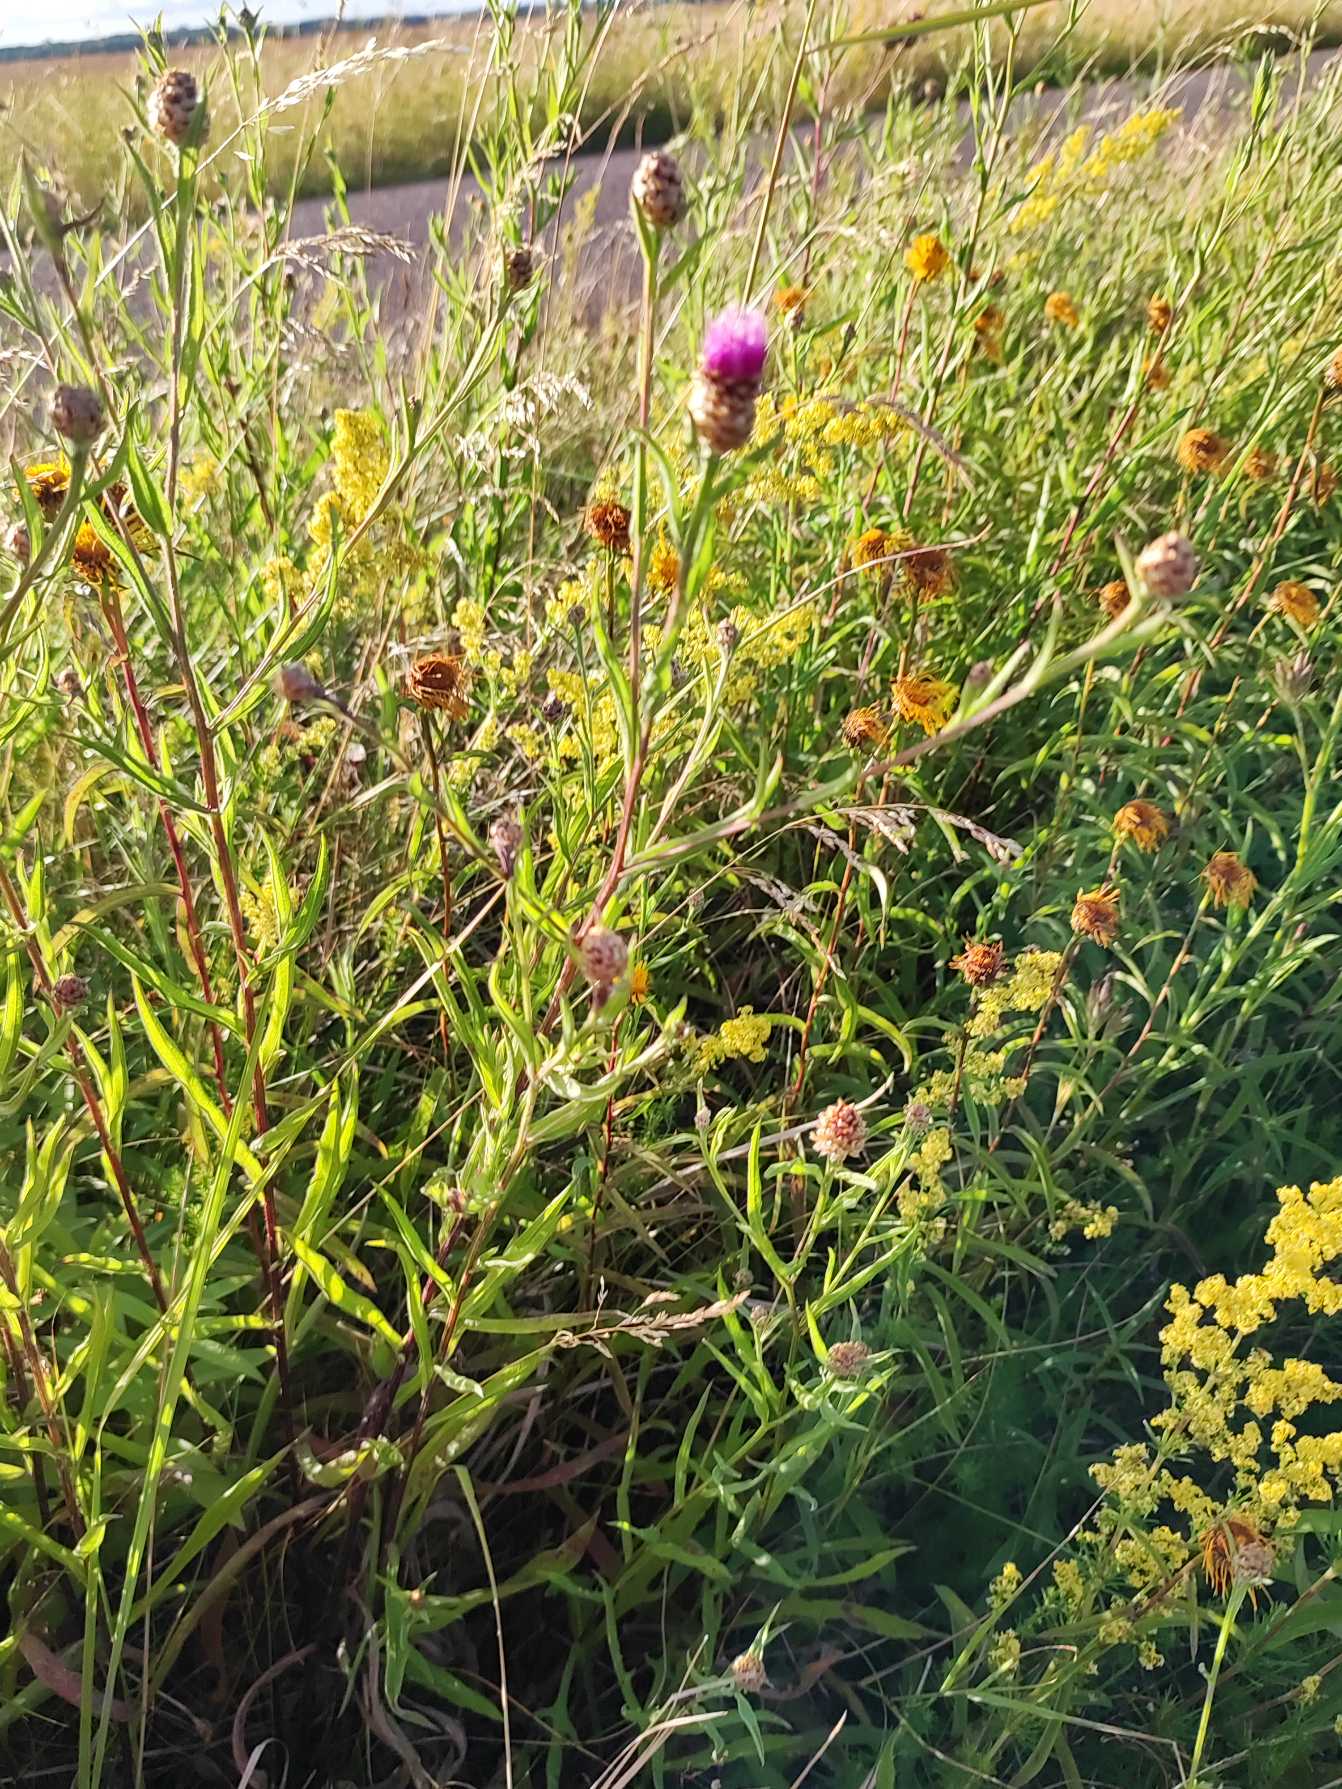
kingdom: Plantae
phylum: Tracheophyta
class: Magnoliopsida
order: Asterales
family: Asteraceae
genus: Centaurea
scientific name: Centaurea jacea
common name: Almindelig knopurt
